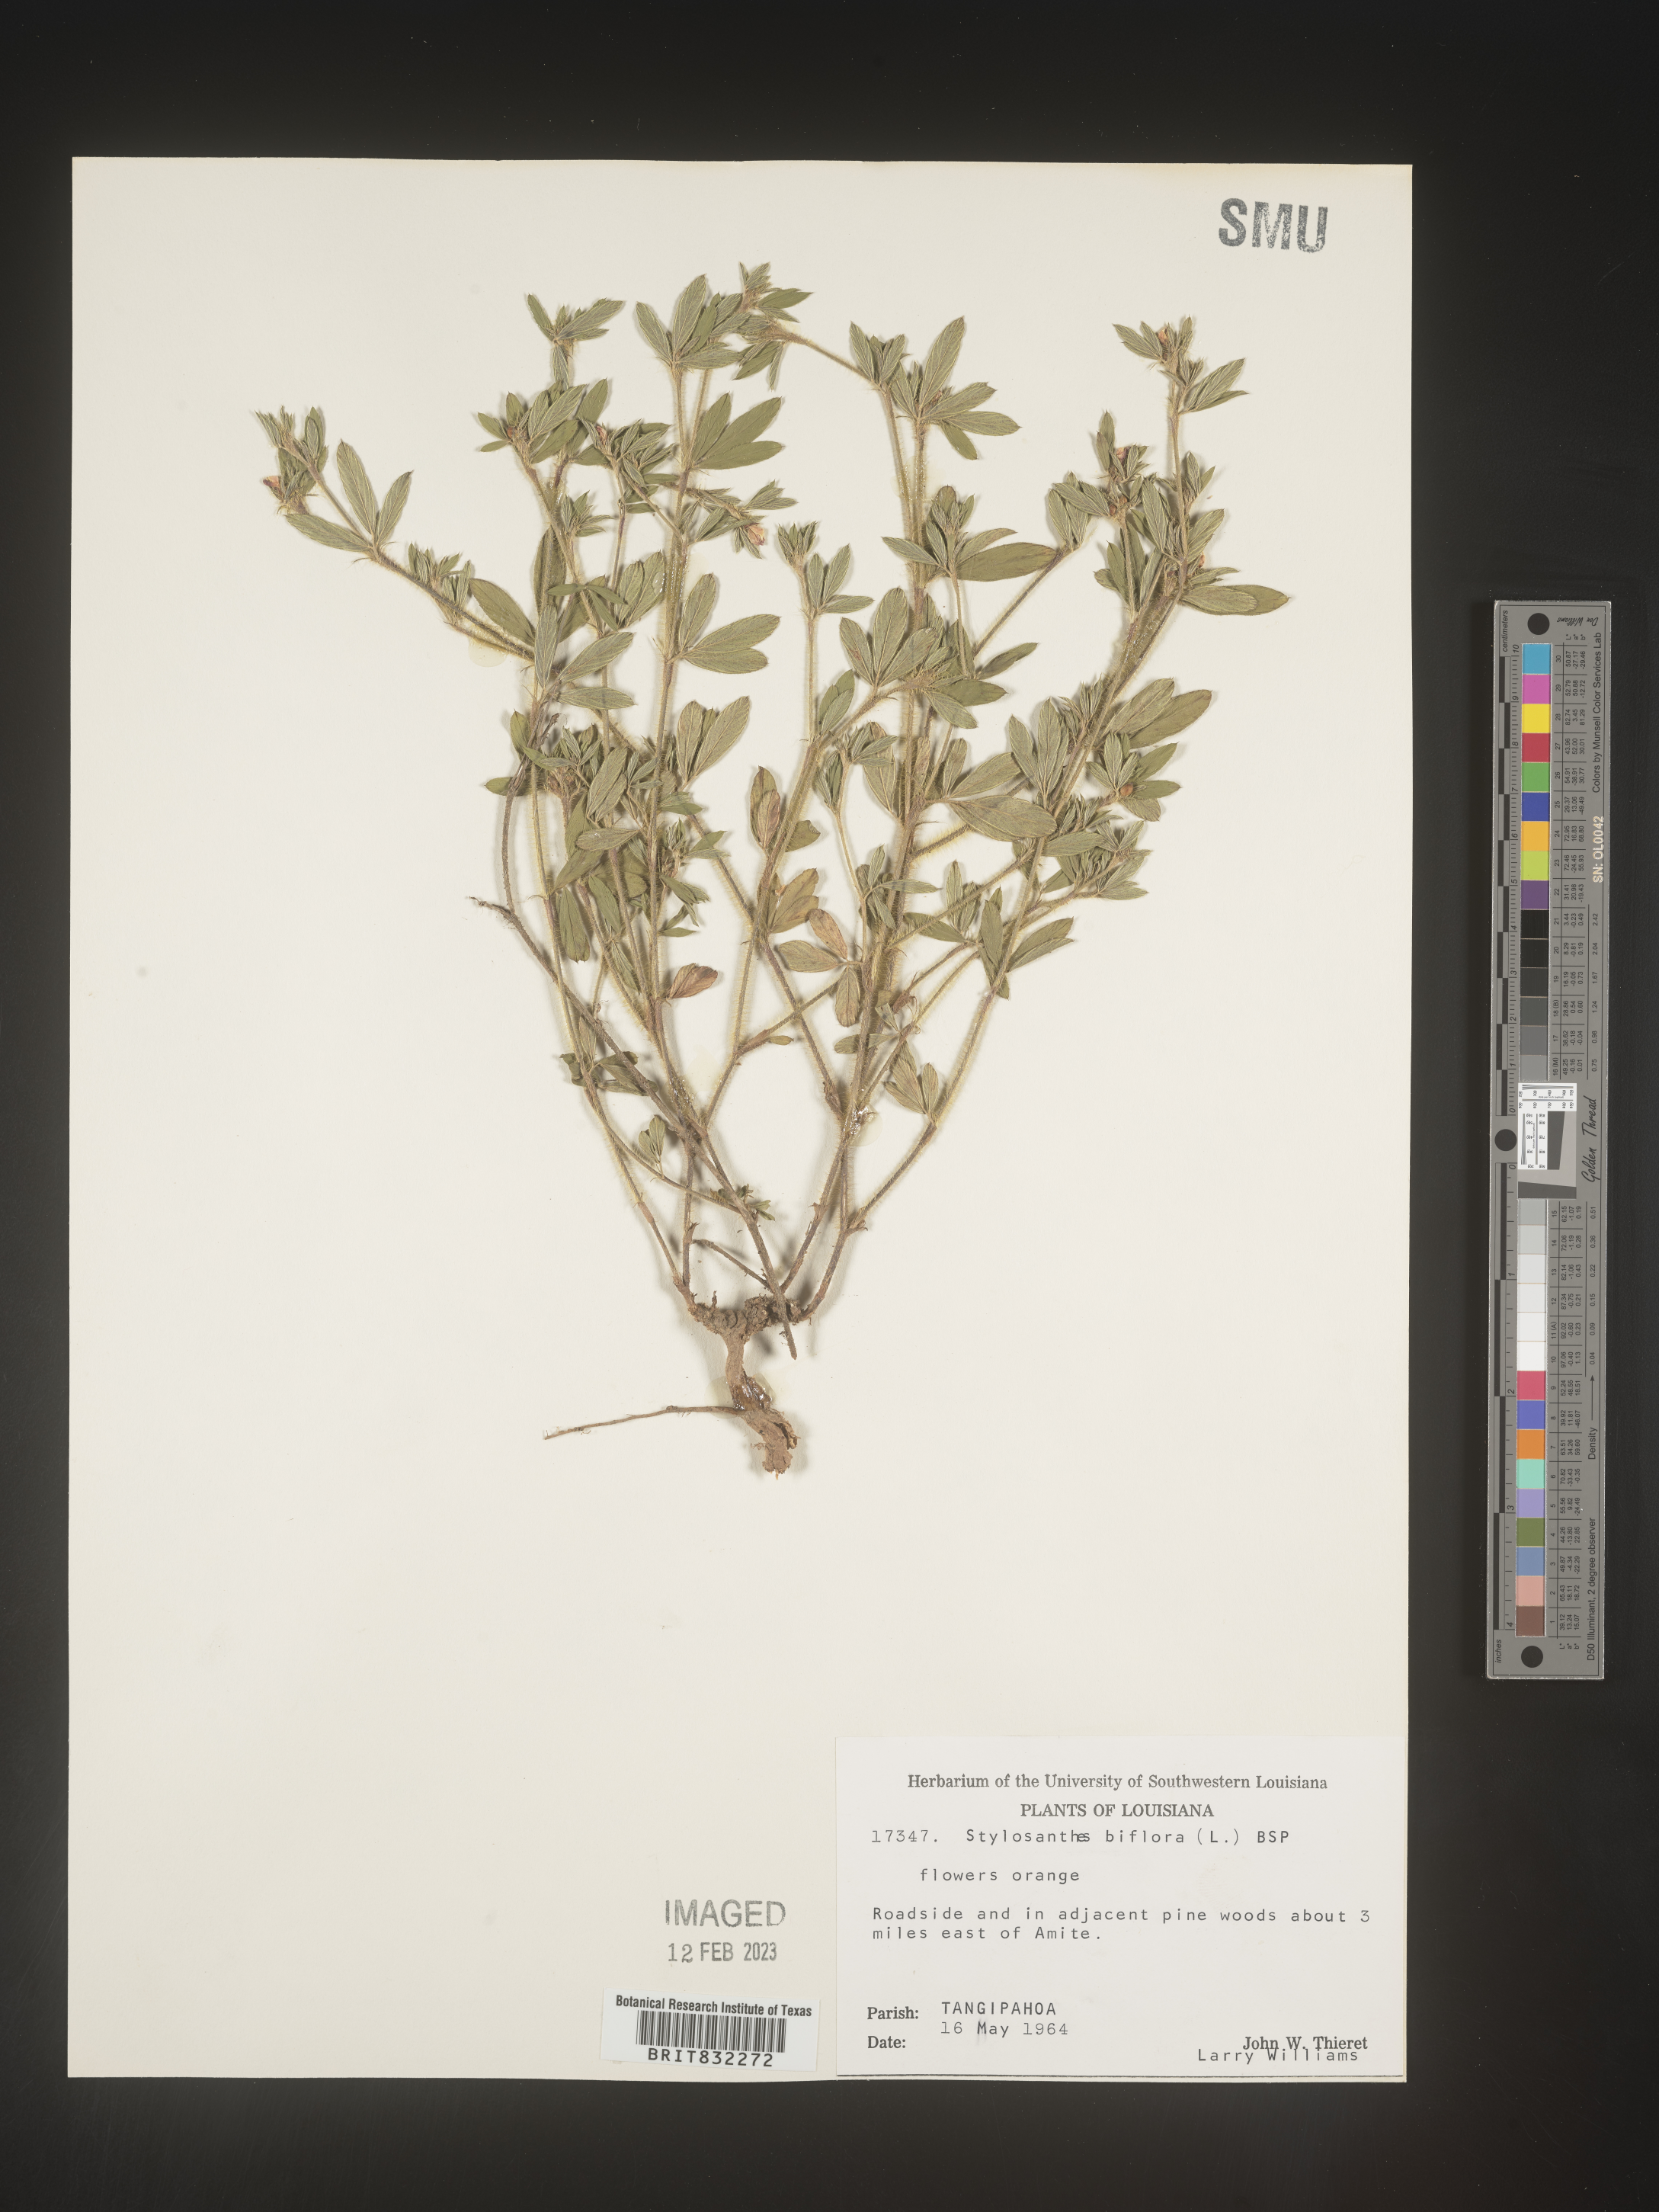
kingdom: Plantae
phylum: Tracheophyta
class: Magnoliopsida
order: Fabales
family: Fabaceae
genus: Stylosanthes
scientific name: Stylosanthes biflora
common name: Two-flower pencil-flower
